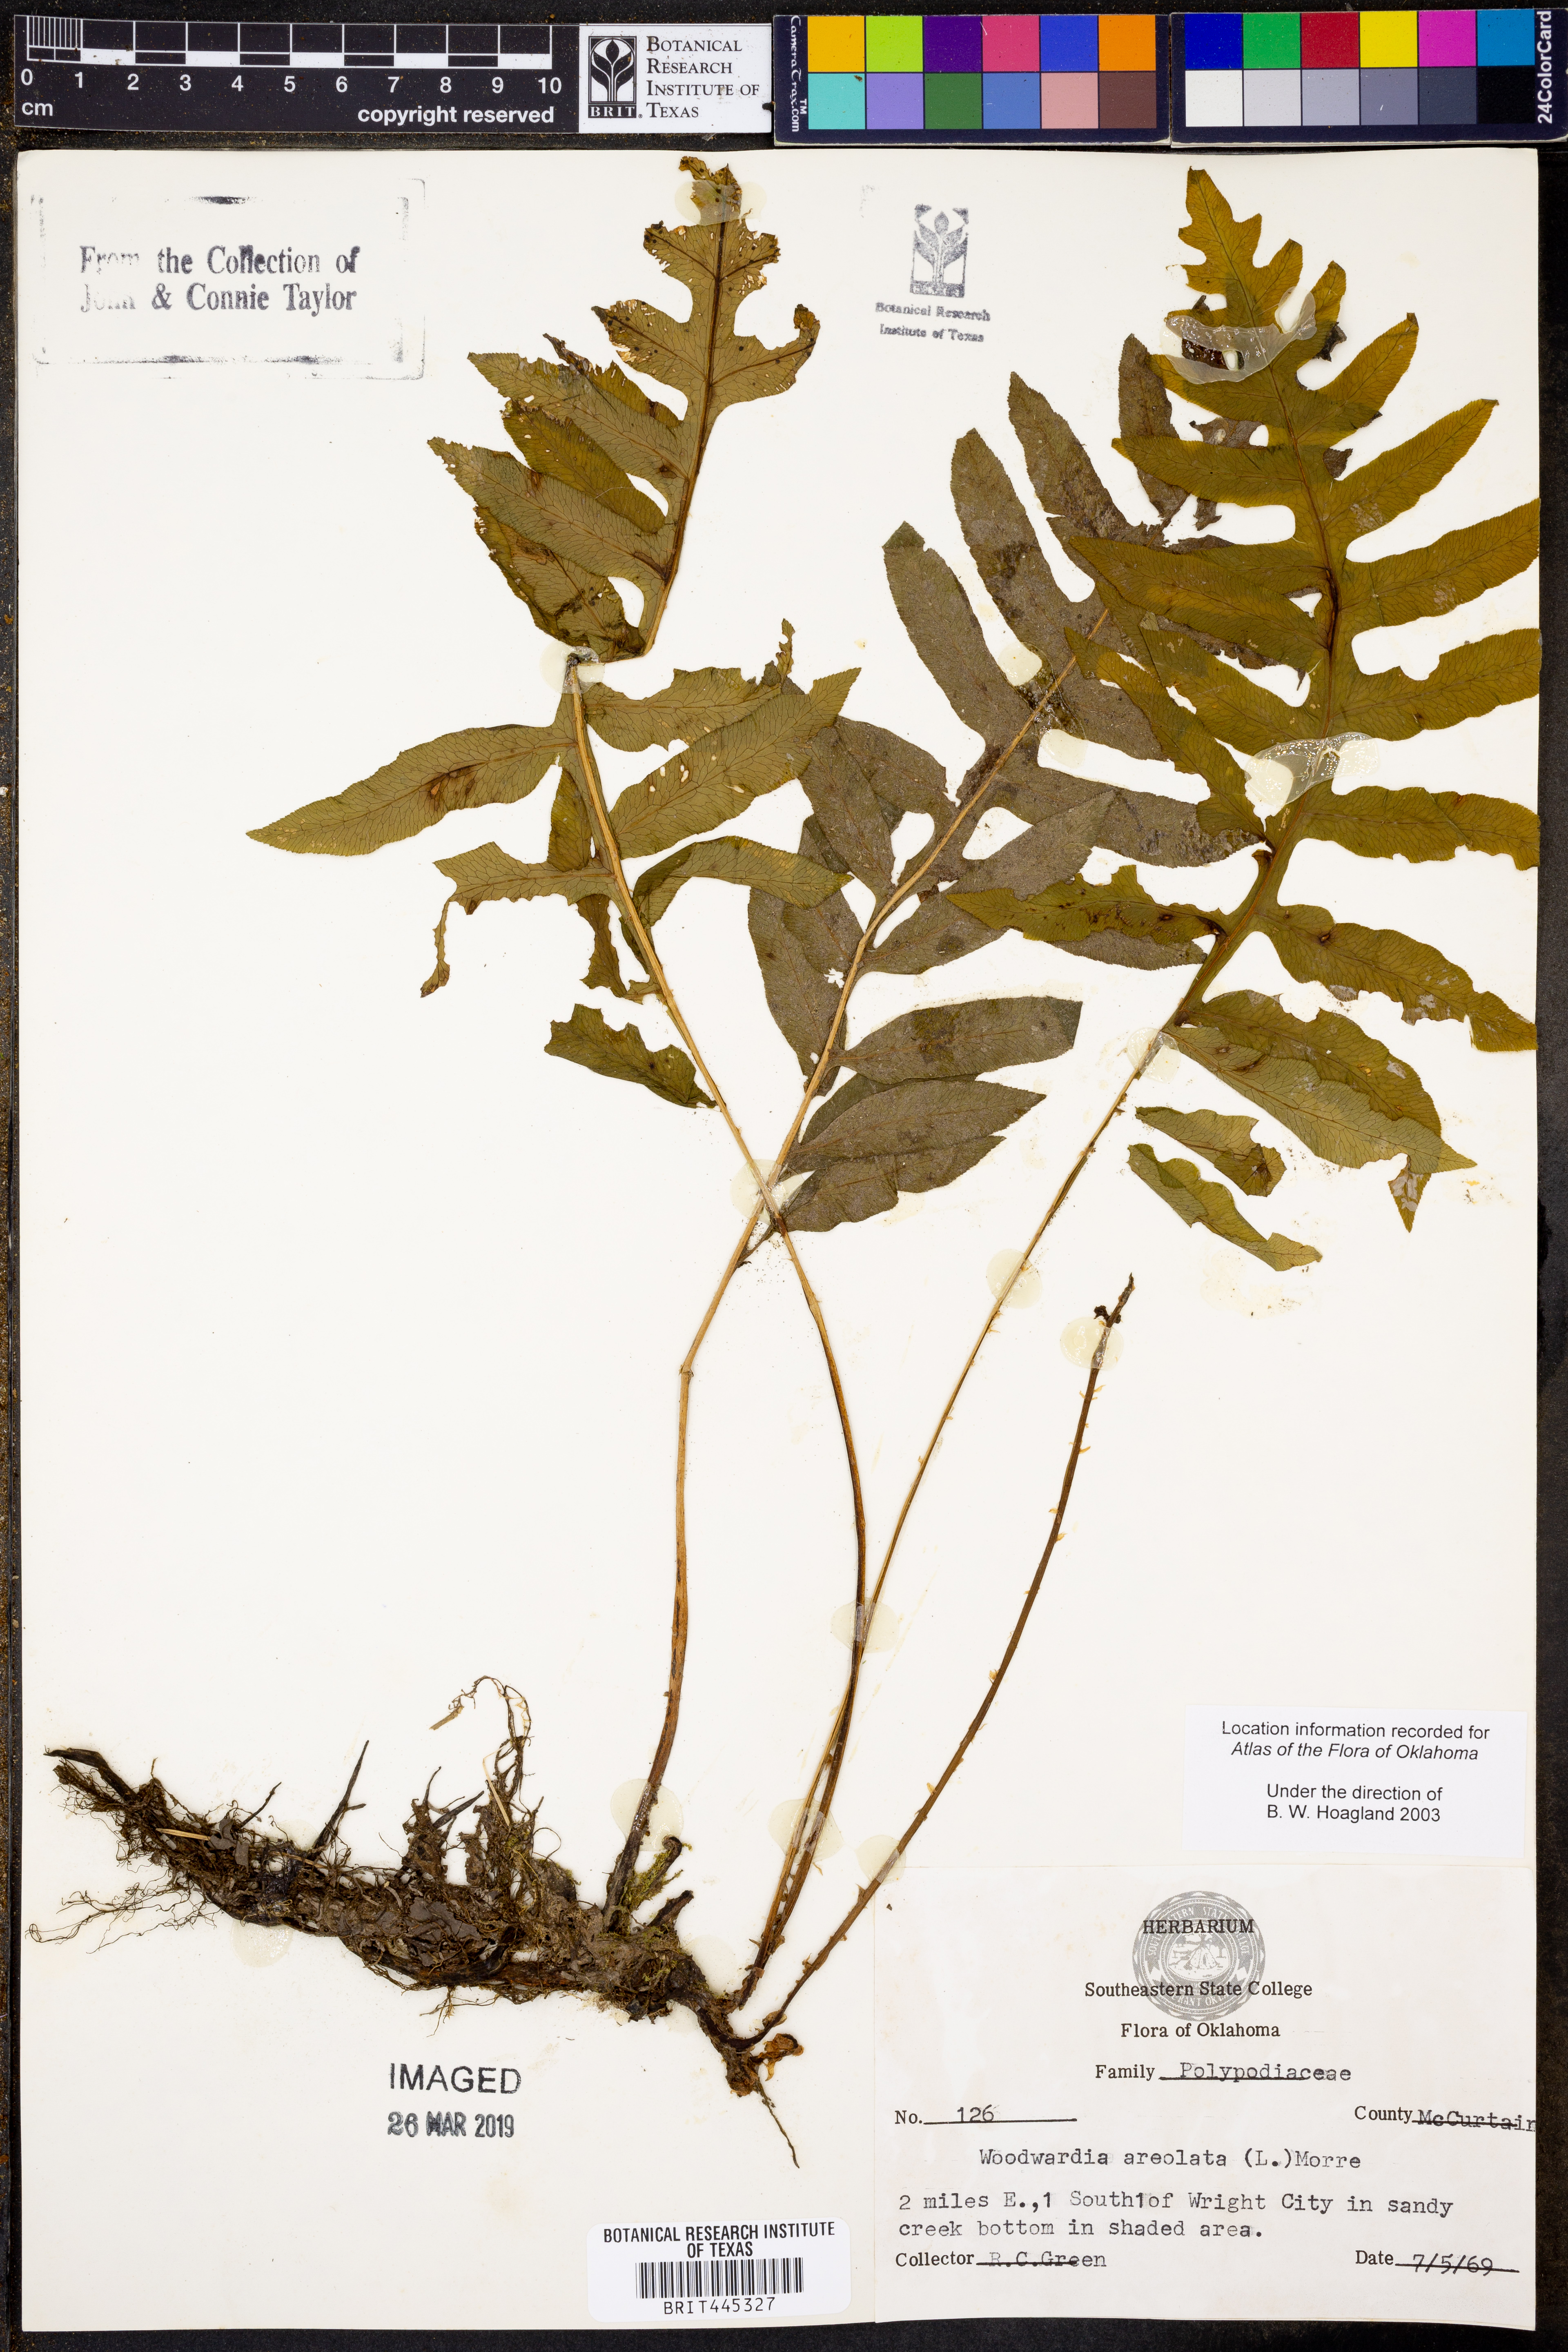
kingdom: Plantae
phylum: Tracheophyta
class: Polypodiopsida
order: Polypodiales
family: Blechnaceae
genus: Lorinseria
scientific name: Lorinseria areolata
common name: Dwarf chain fern
